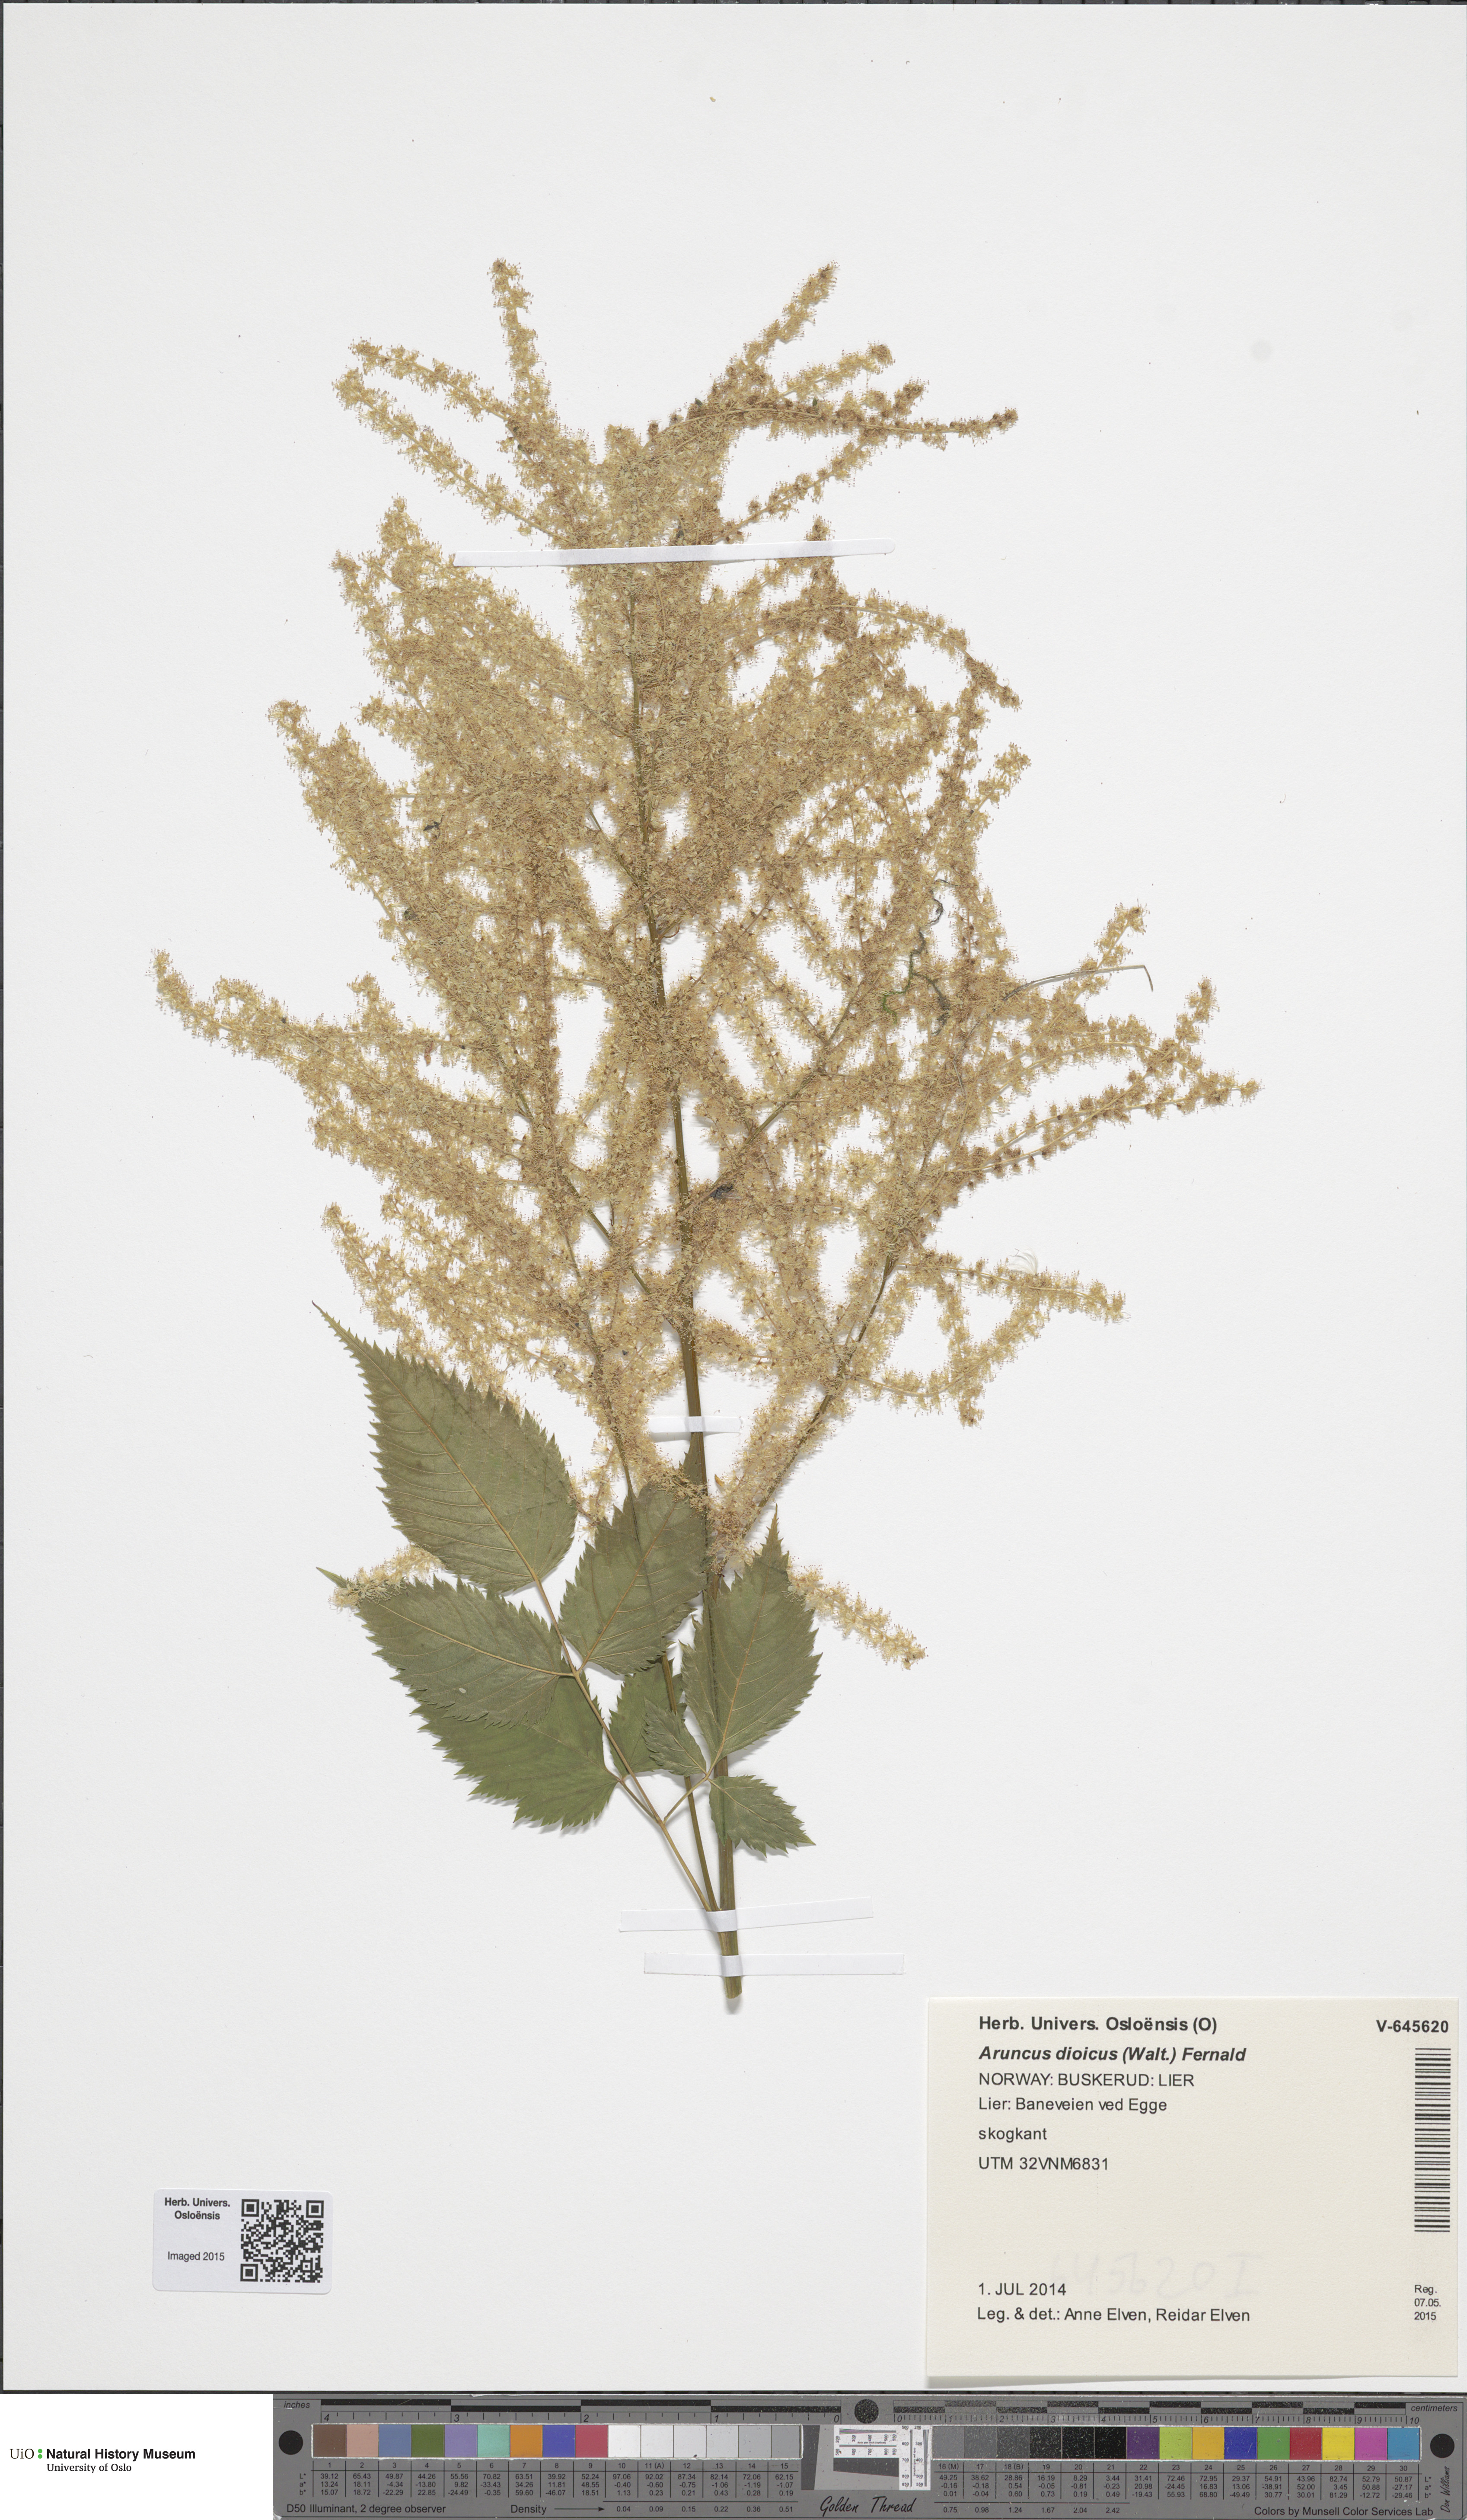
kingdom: Plantae
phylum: Tracheophyta
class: Magnoliopsida
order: Rosales
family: Rosaceae
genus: Aruncus
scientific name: Aruncus dioicus
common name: Buck's-beard
